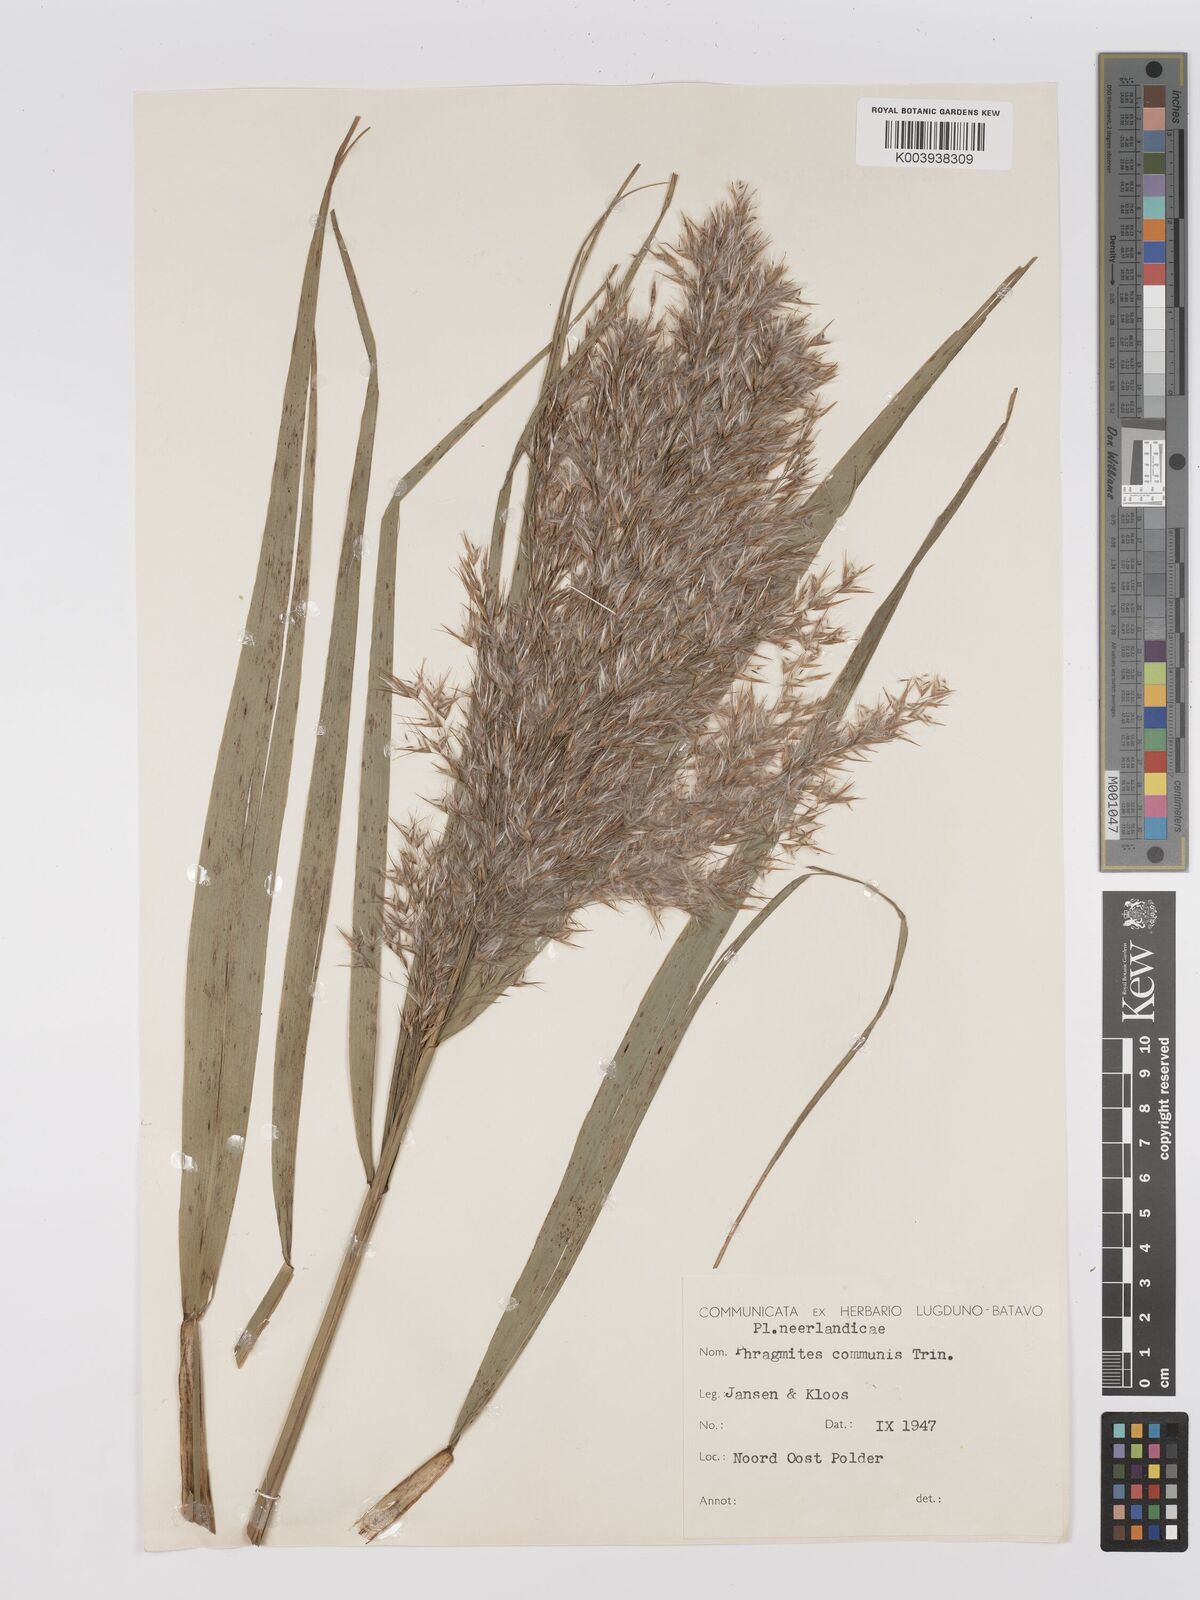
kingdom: Plantae
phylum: Tracheophyta
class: Liliopsida
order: Poales
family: Poaceae
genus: Phragmites
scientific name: Phragmites australis
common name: Common reed
